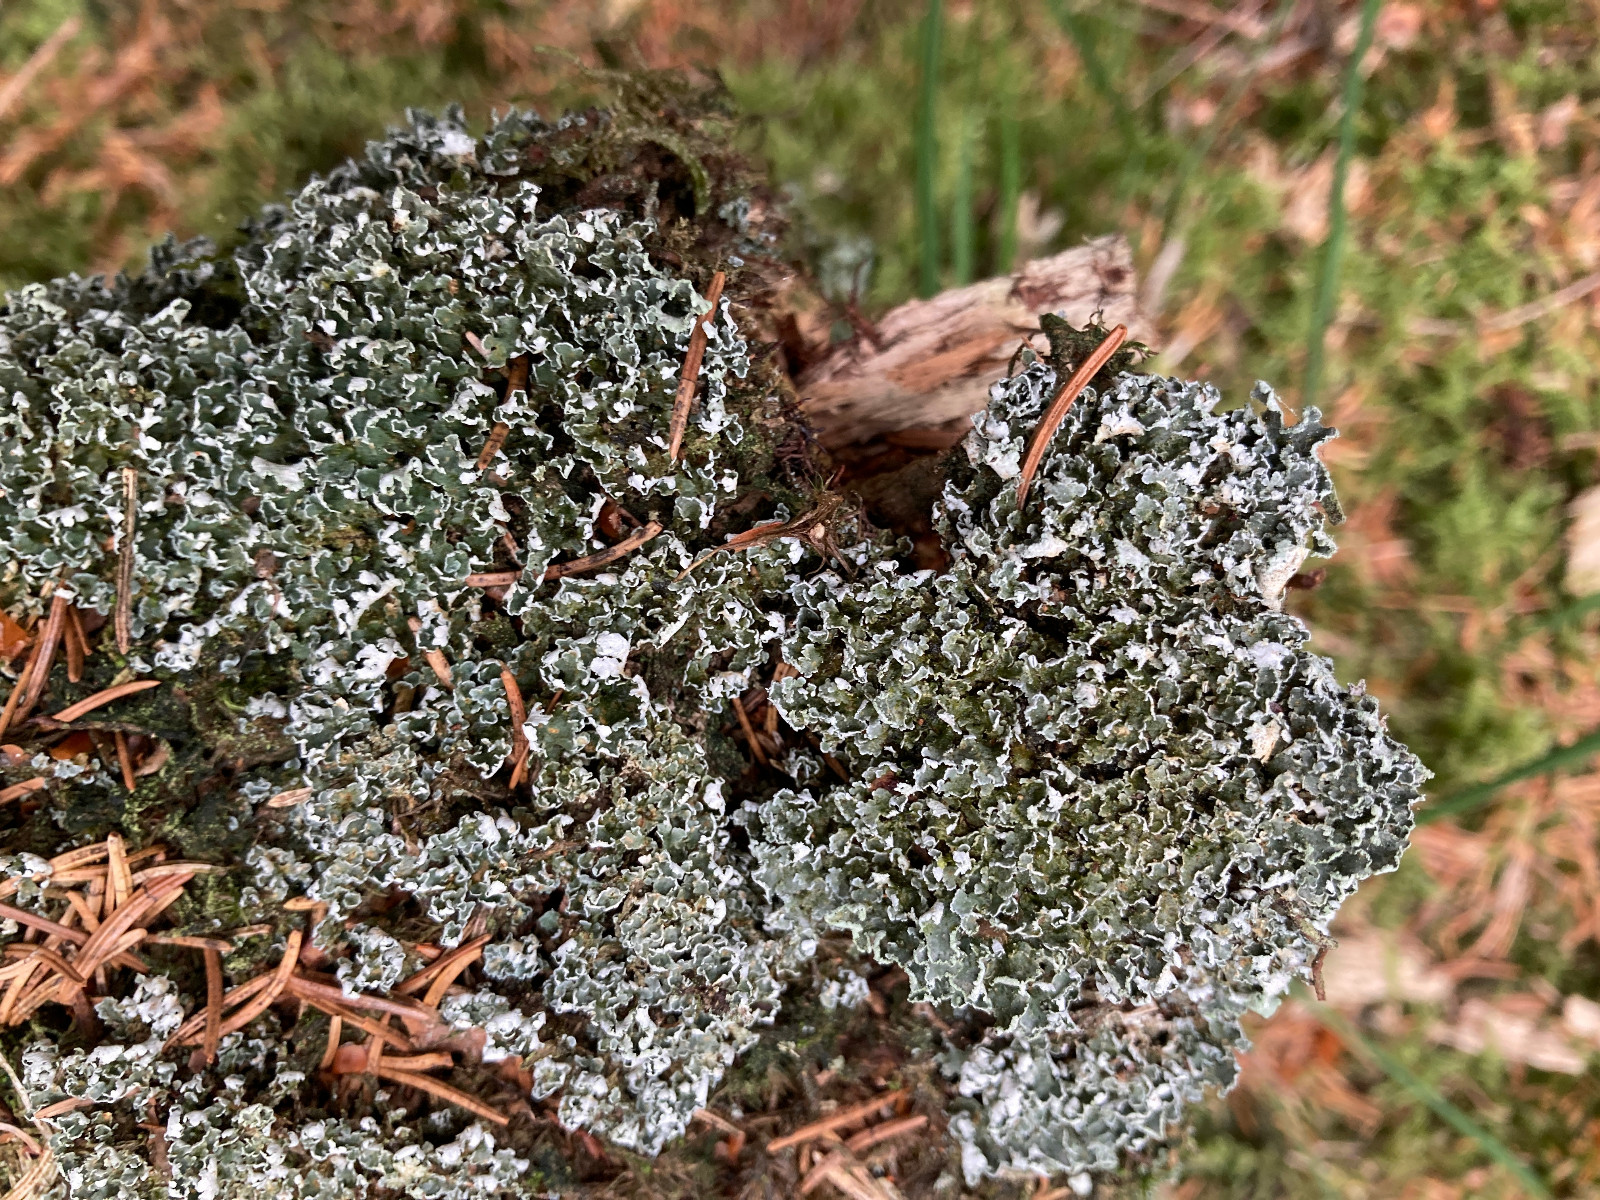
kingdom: Fungi
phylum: Ascomycota
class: Lecanoromycetes
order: Lecanorales
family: Cladoniaceae
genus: Cladonia
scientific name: Cladonia
